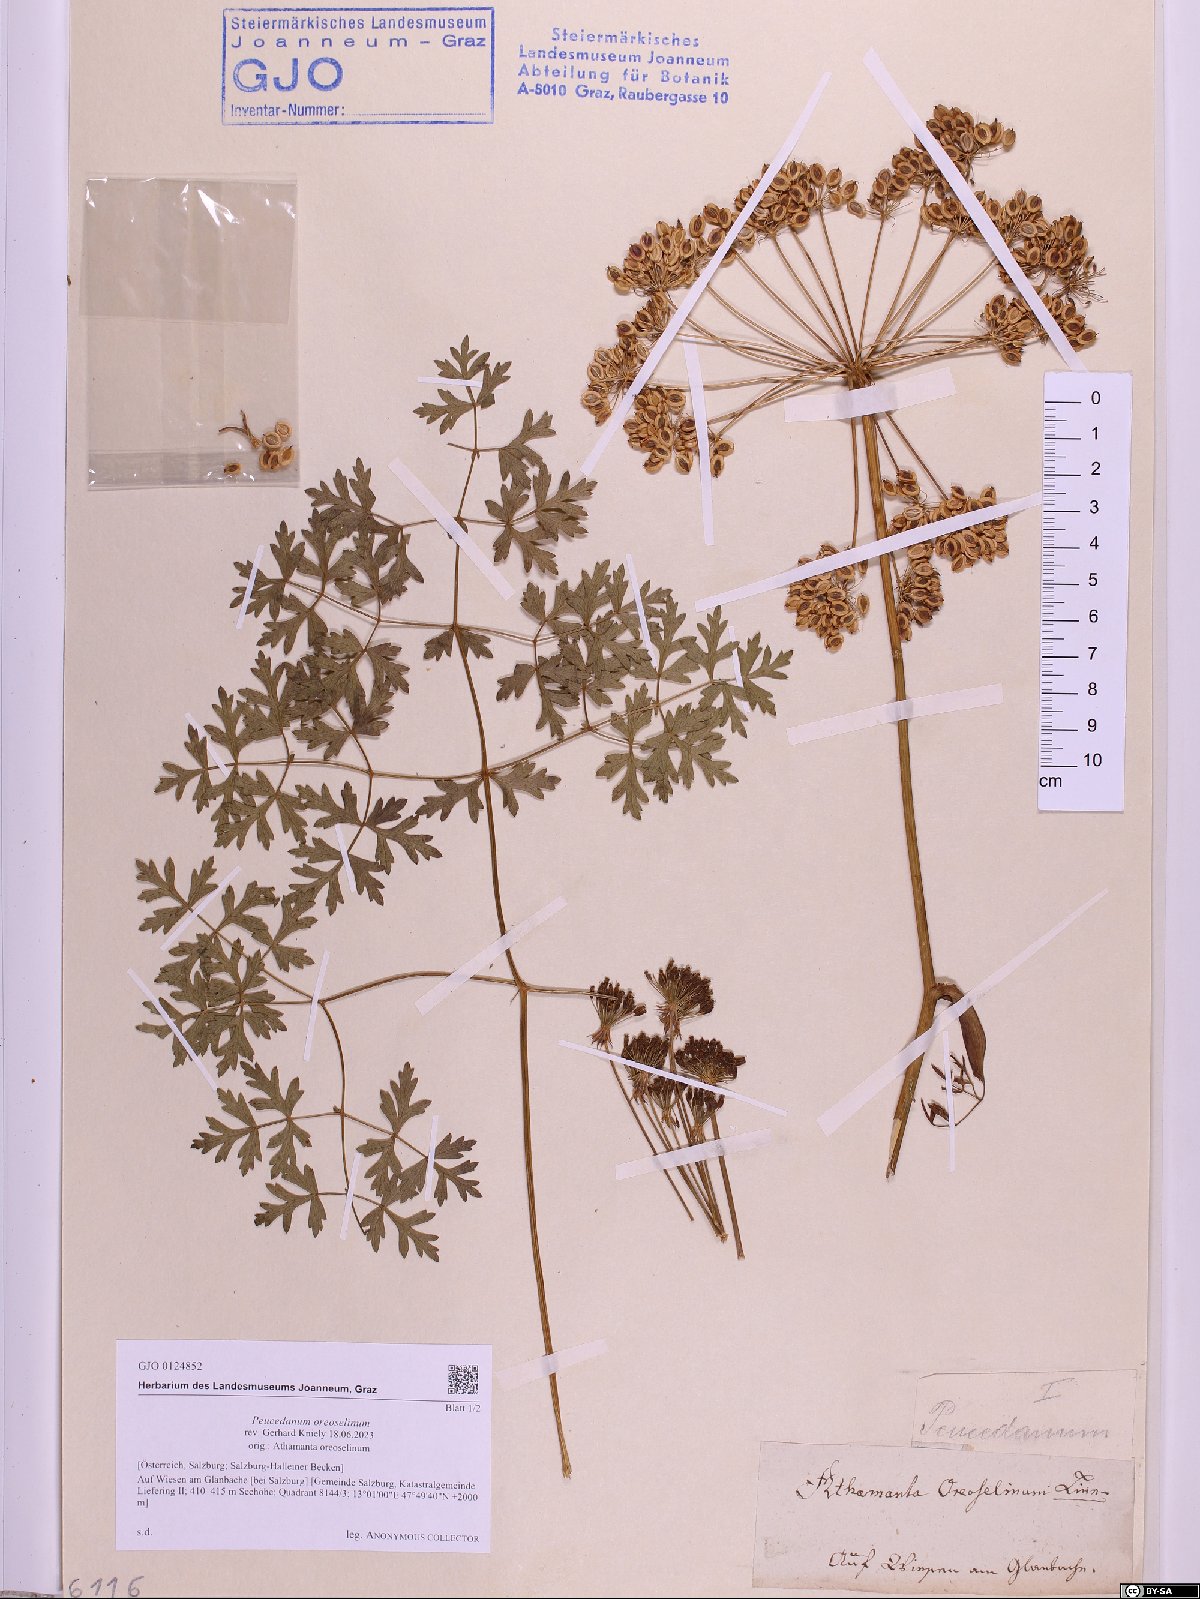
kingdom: Plantae
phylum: Tracheophyta
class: Magnoliopsida
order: Apiales
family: Apiaceae
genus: Oreoselinum
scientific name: Oreoselinum nigrum
